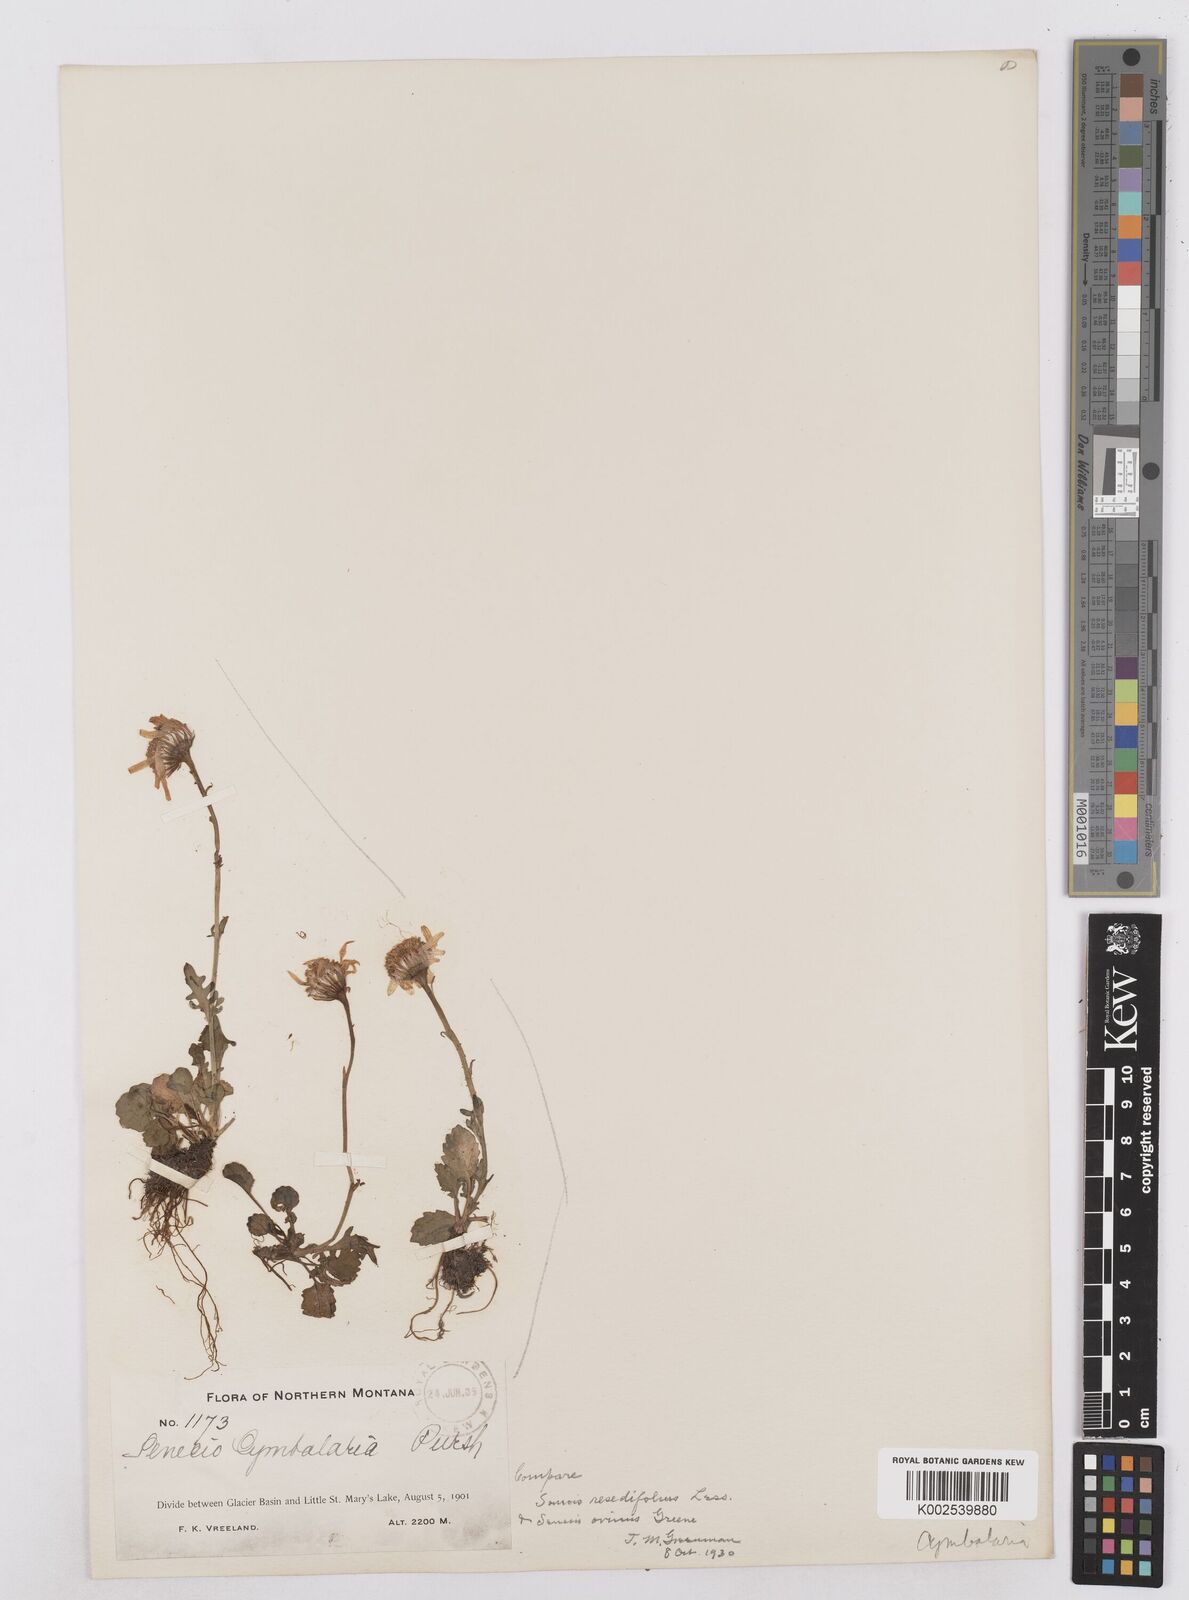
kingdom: Plantae
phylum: Tracheophyta
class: Magnoliopsida
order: Asterales
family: Asteraceae
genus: Packera
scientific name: Packera cymbalaria
